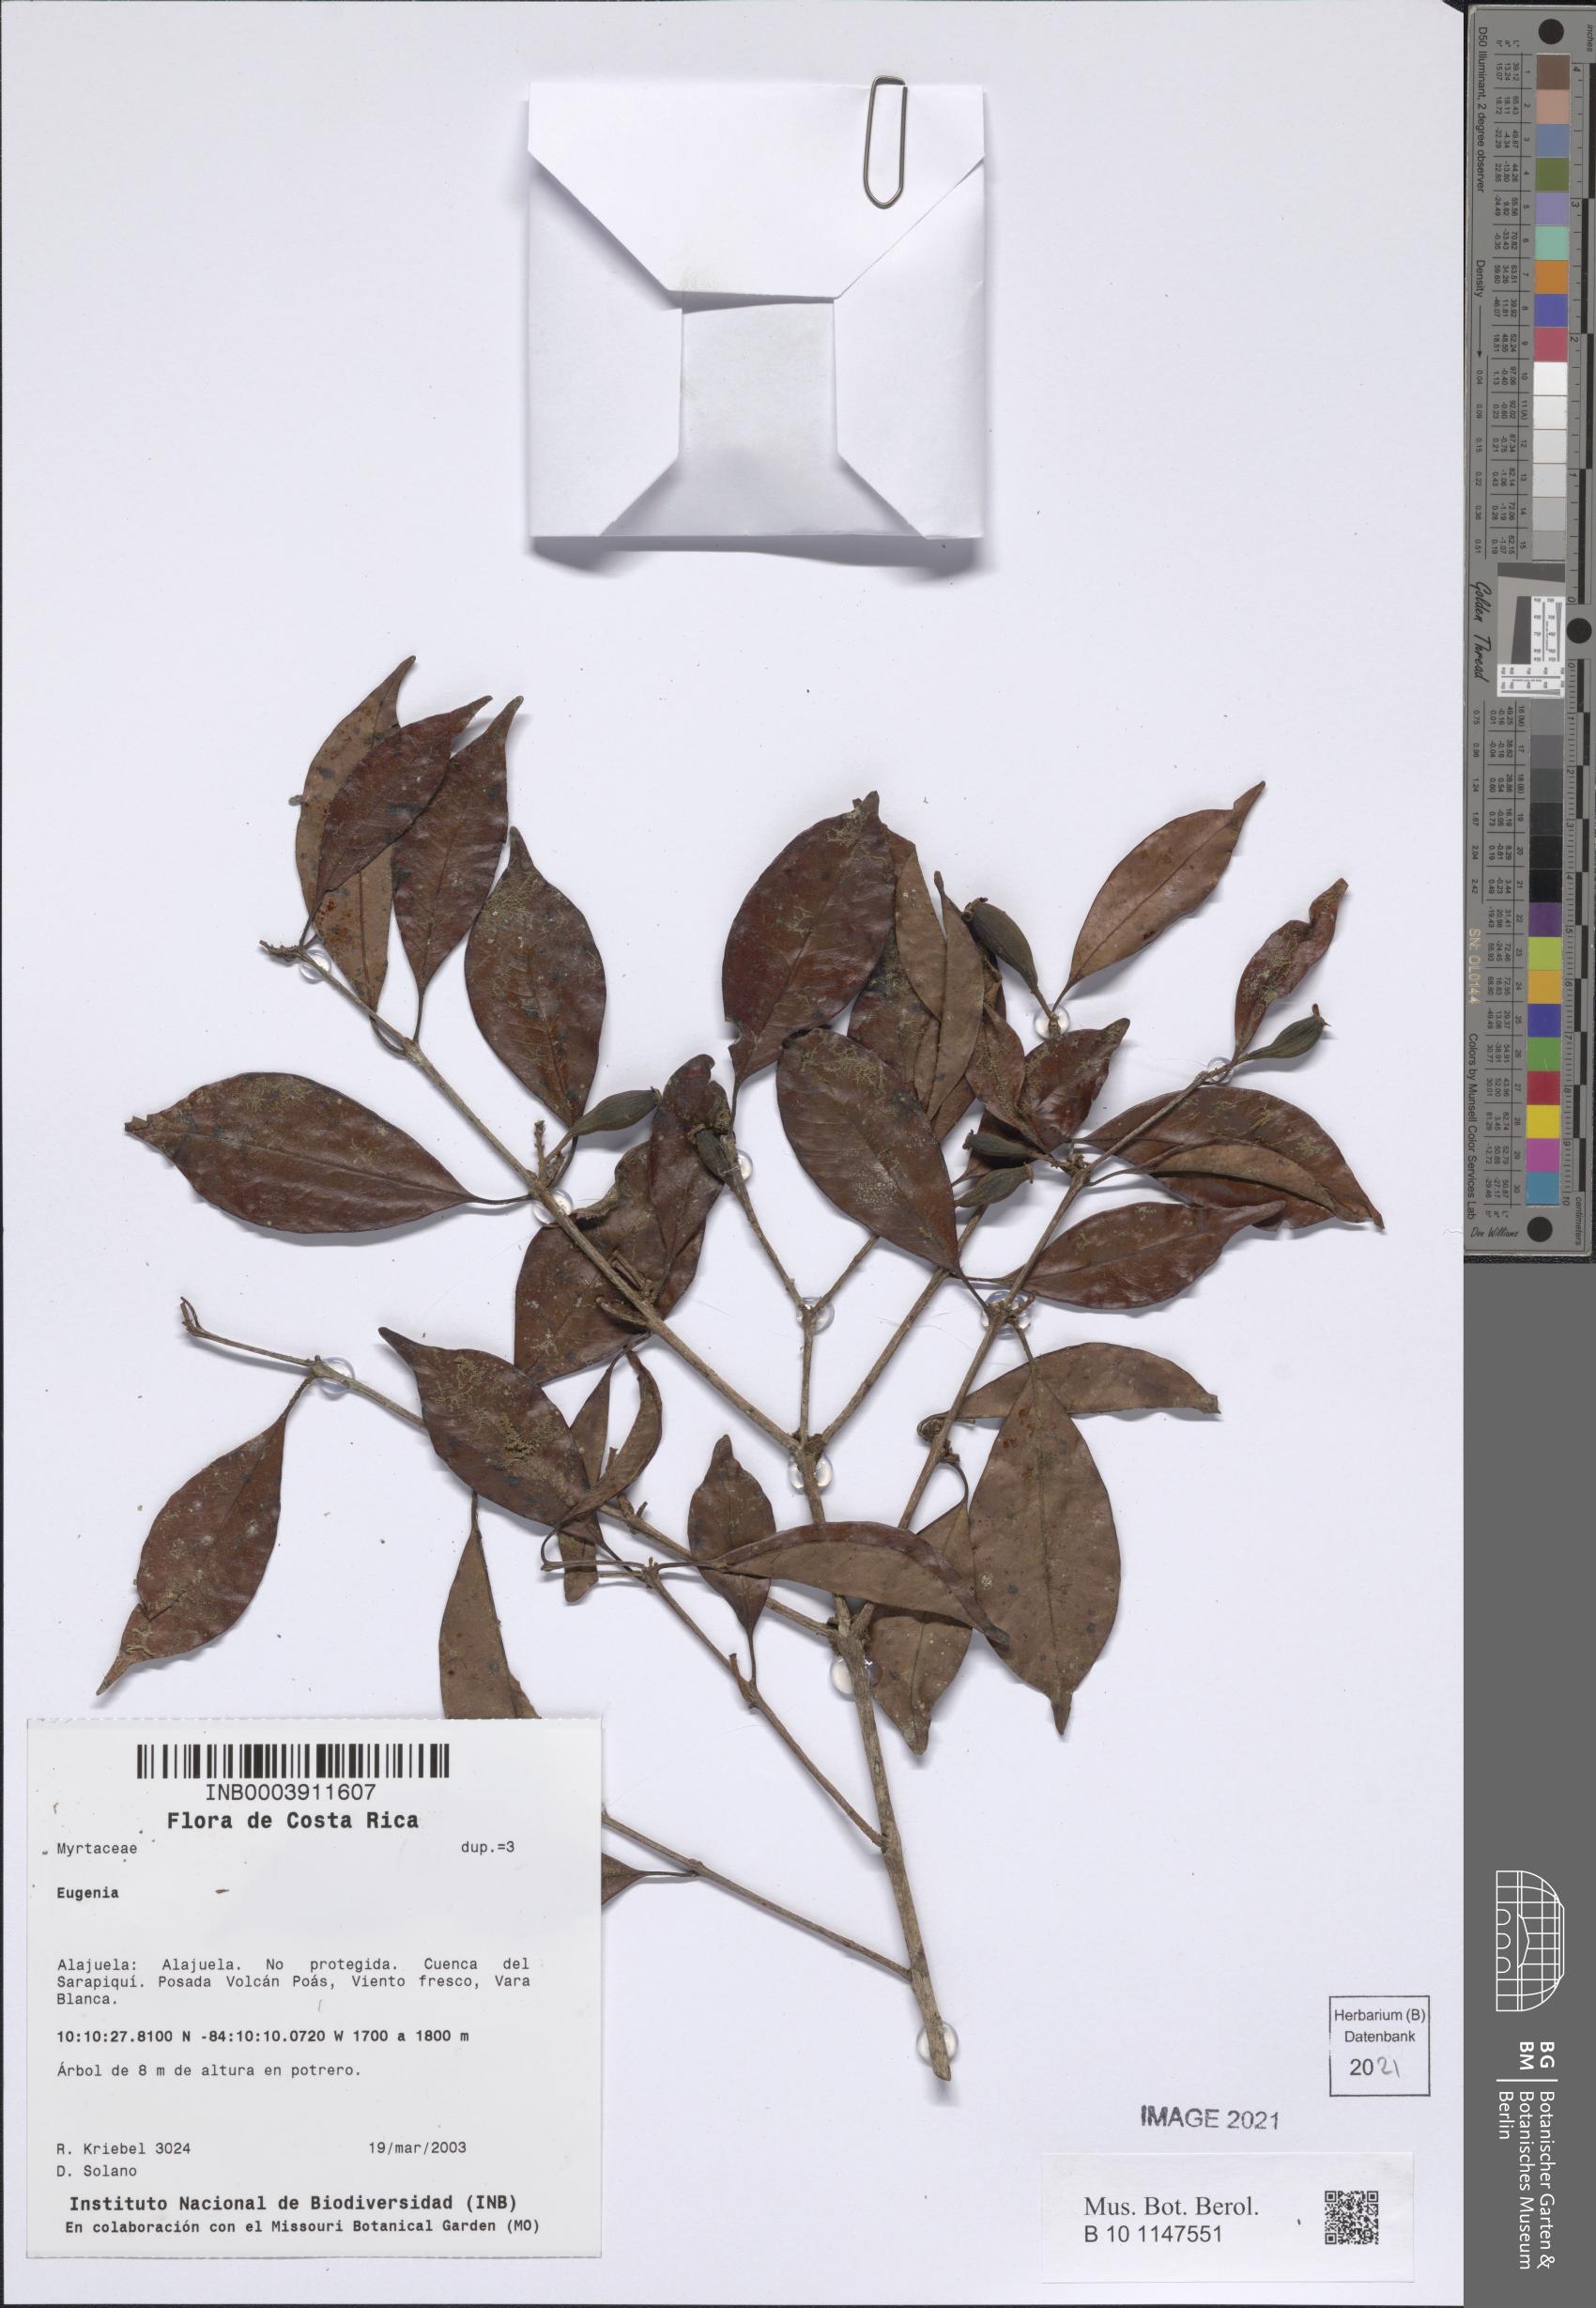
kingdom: Plantae
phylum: Tracheophyta
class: Magnoliopsida
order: Myrtales
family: Myrtaceae
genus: Eugenia
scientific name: Eugenia
